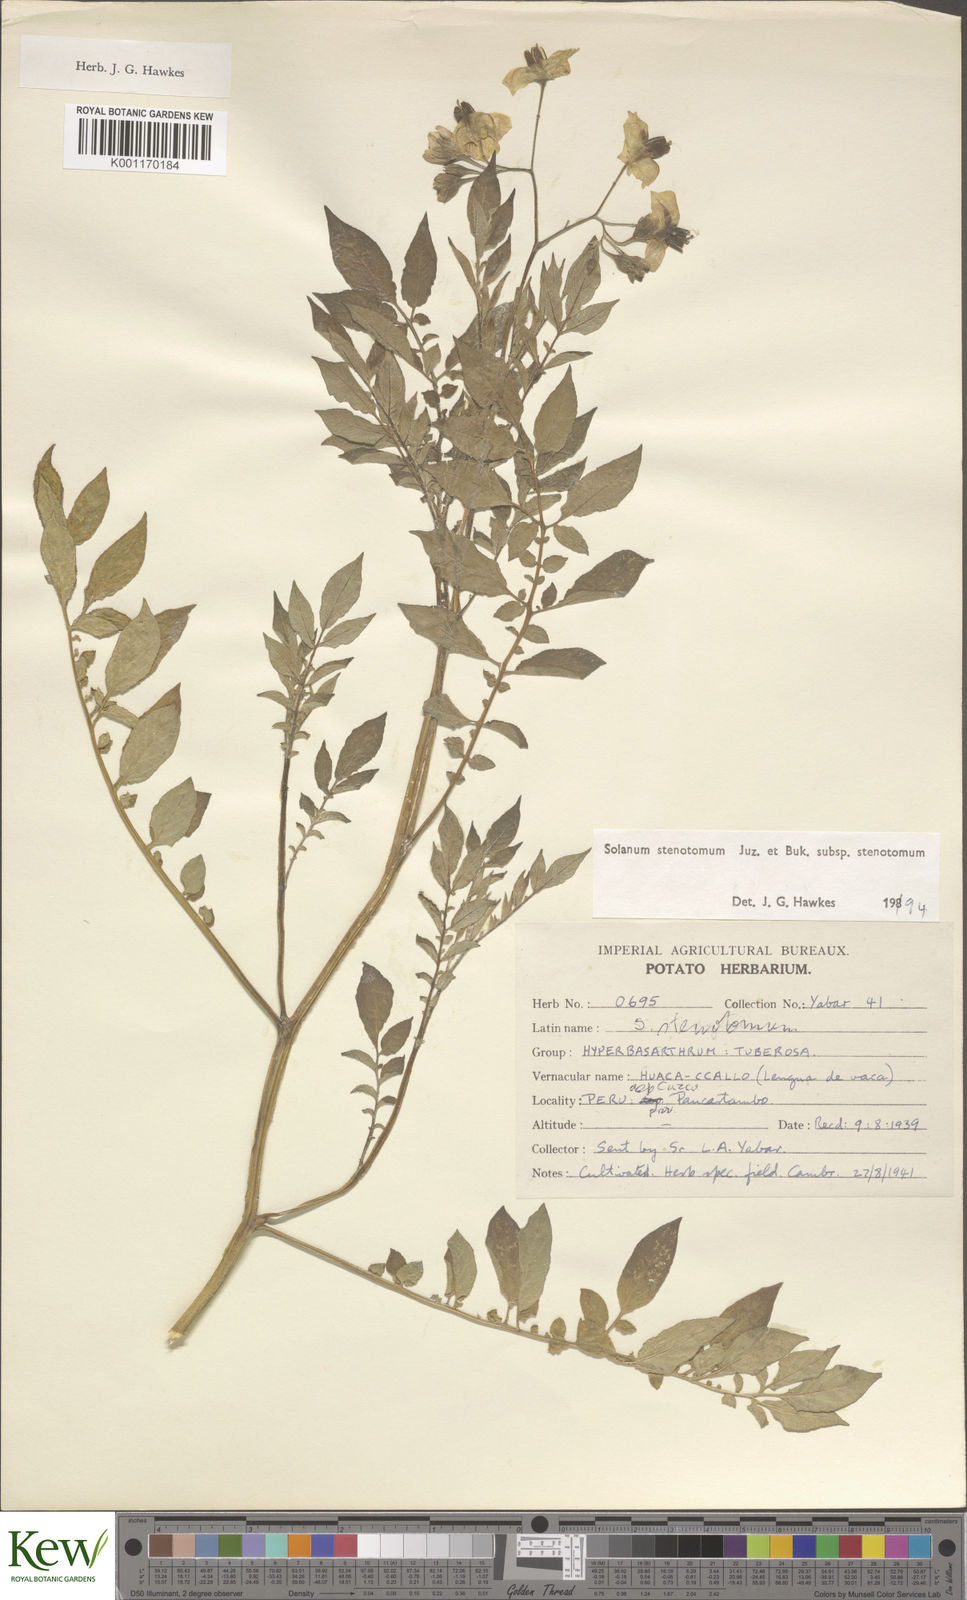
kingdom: Plantae
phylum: Tracheophyta
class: Magnoliopsida
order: Solanales
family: Solanaceae
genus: Solanum
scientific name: Solanum tuberosum
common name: Potato
